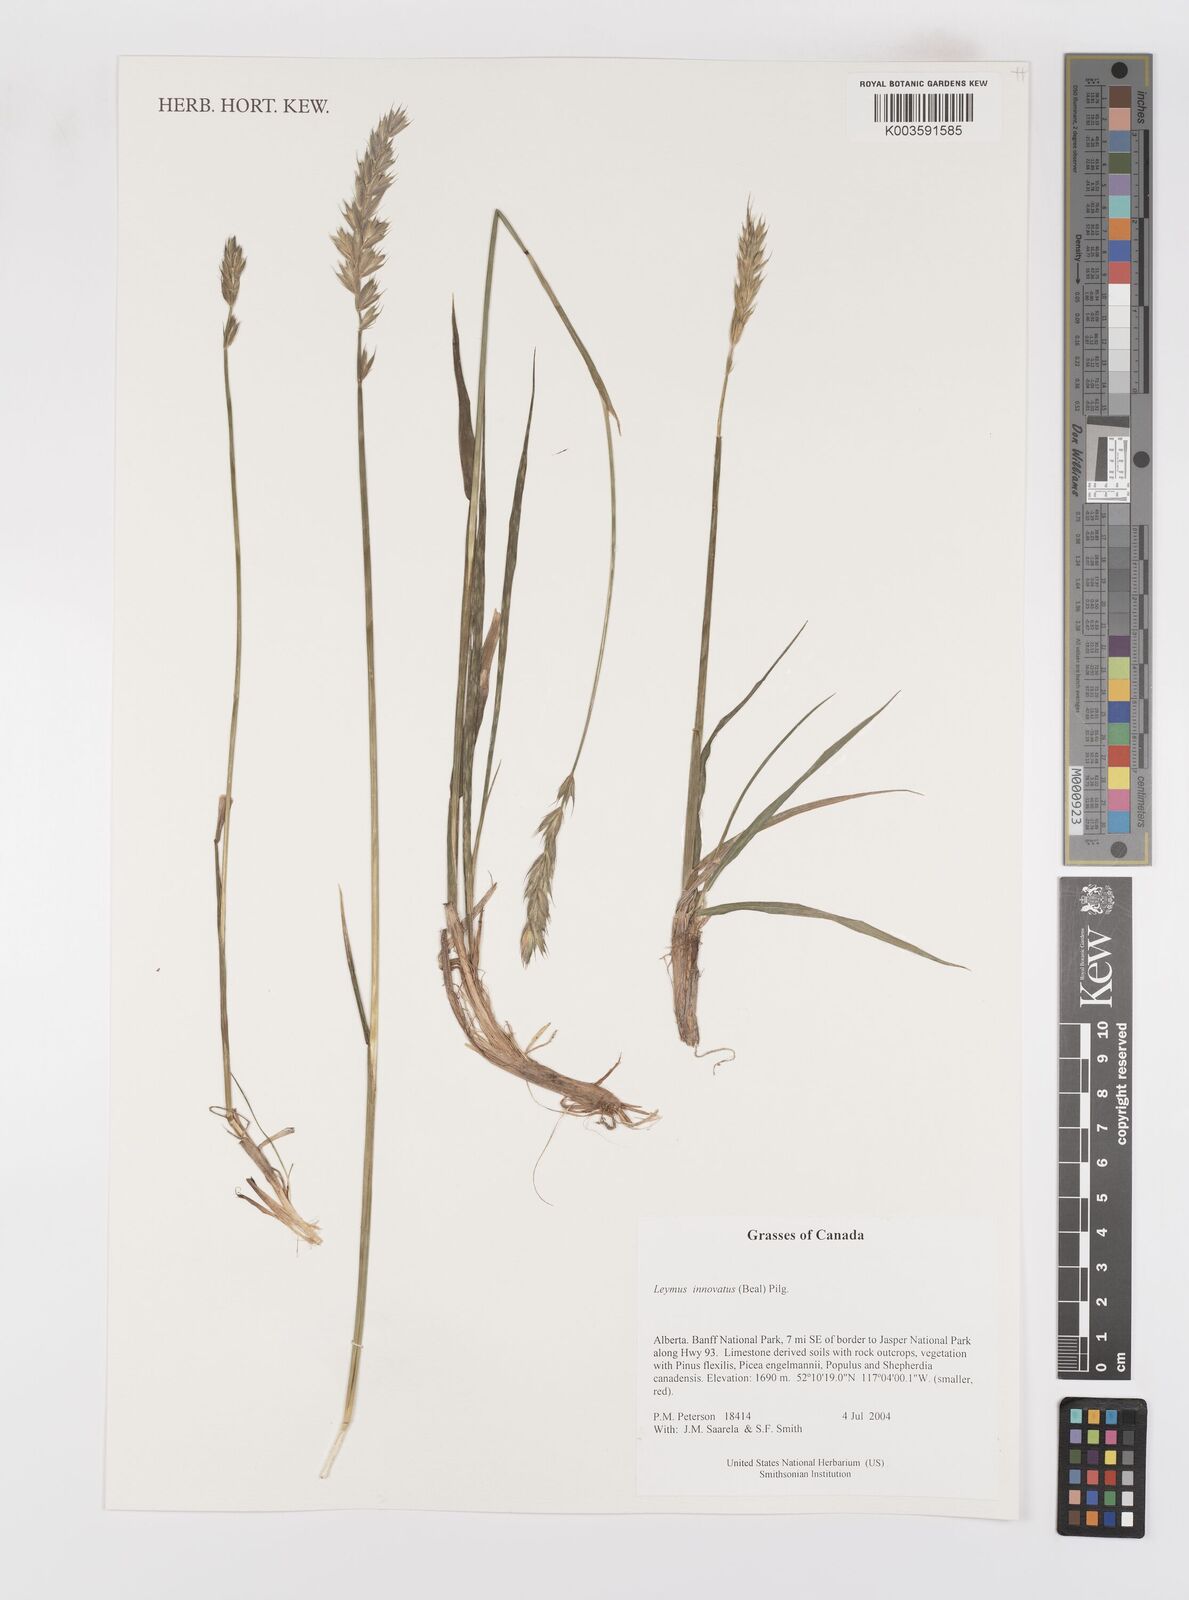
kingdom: Plantae
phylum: Tracheophyta
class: Liliopsida
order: Poales
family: Poaceae
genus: Leymus
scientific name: Leymus innovatus
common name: Boreal wild rye
